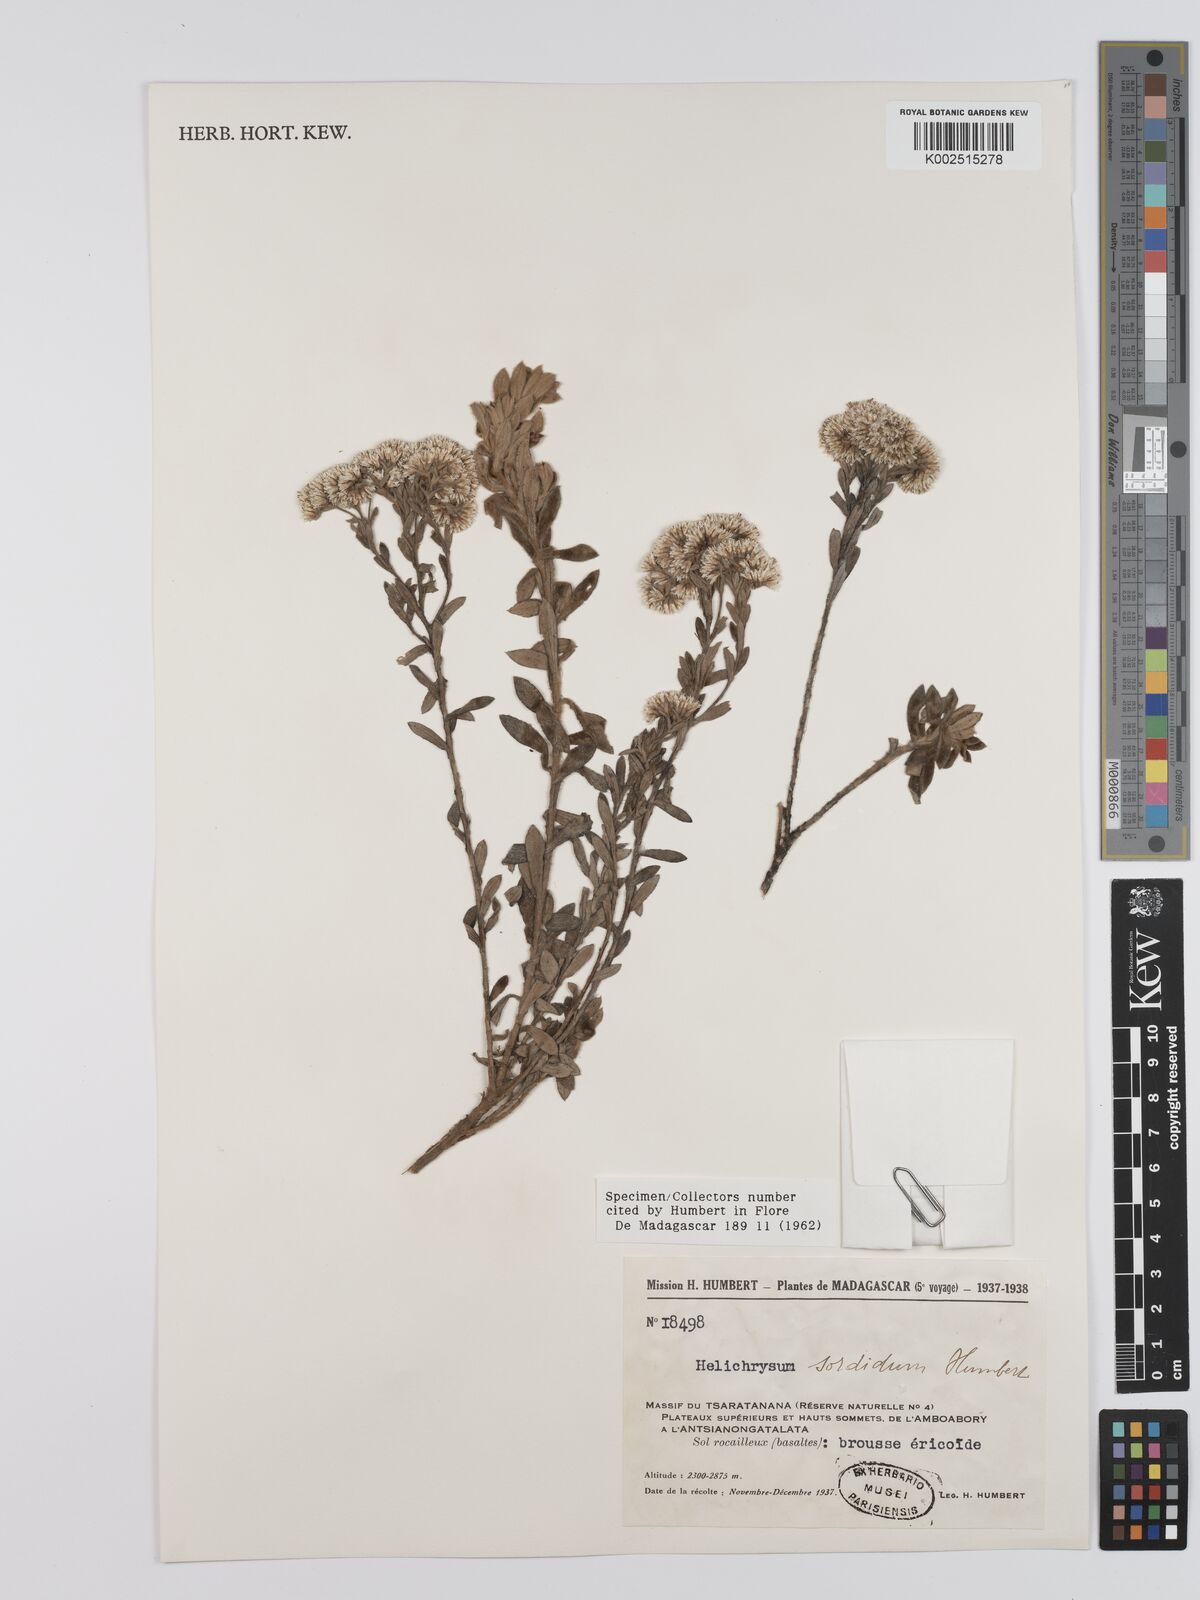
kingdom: Plantae
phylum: Tracheophyta
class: Magnoliopsida
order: Asterales
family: Asteraceae
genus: Helichrysum
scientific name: Helichrysum sordidum
